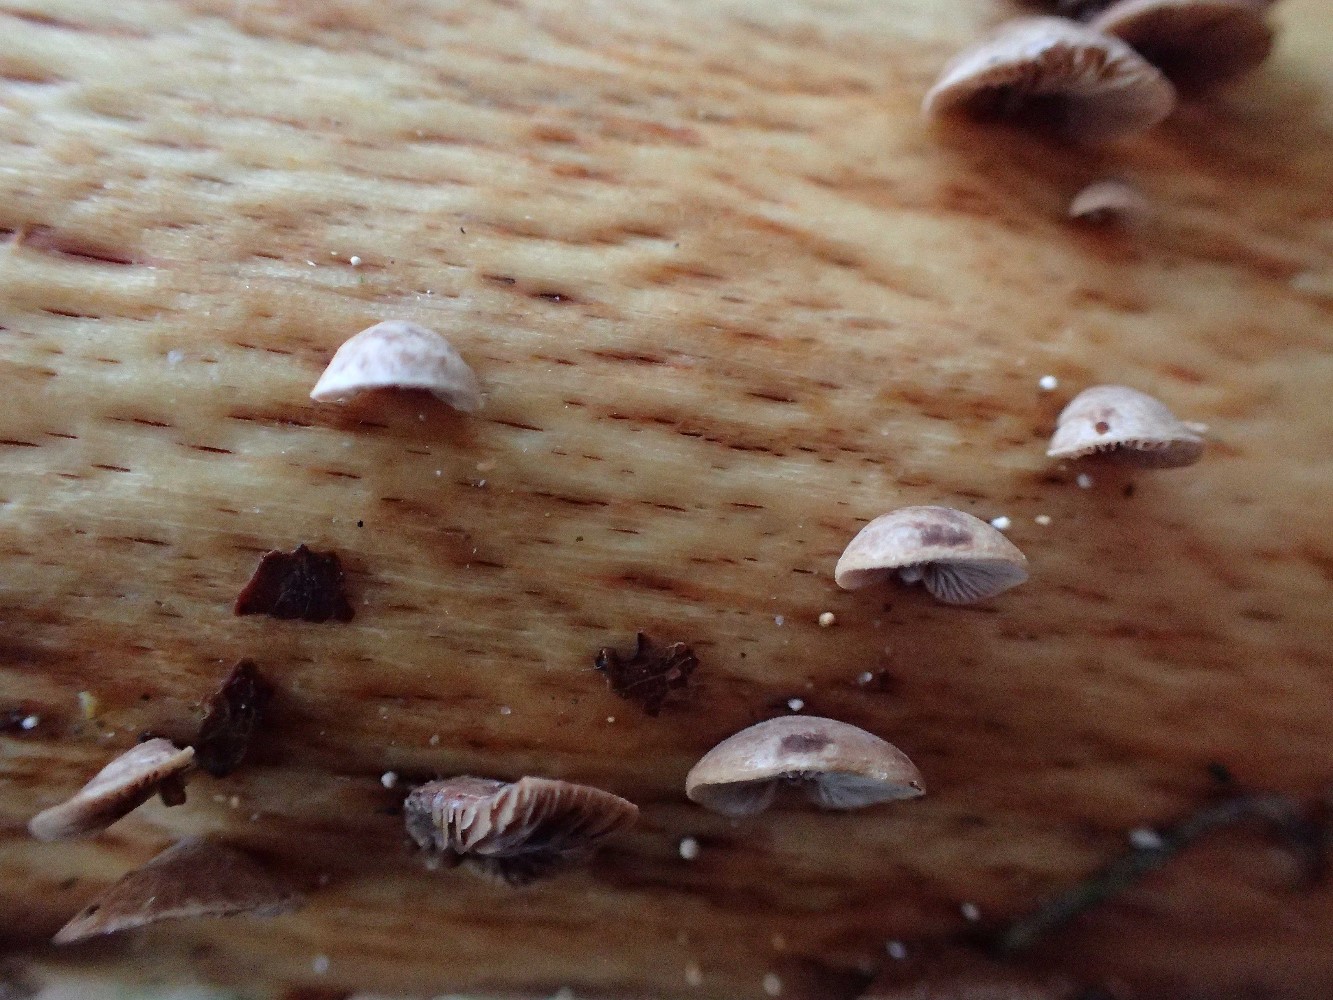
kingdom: Fungi
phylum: Basidiomycota
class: Agaricomycetes
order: Agaricales
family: Strophariaceae
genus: Deconica
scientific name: Deconica horizontalis
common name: ved-stråhat
